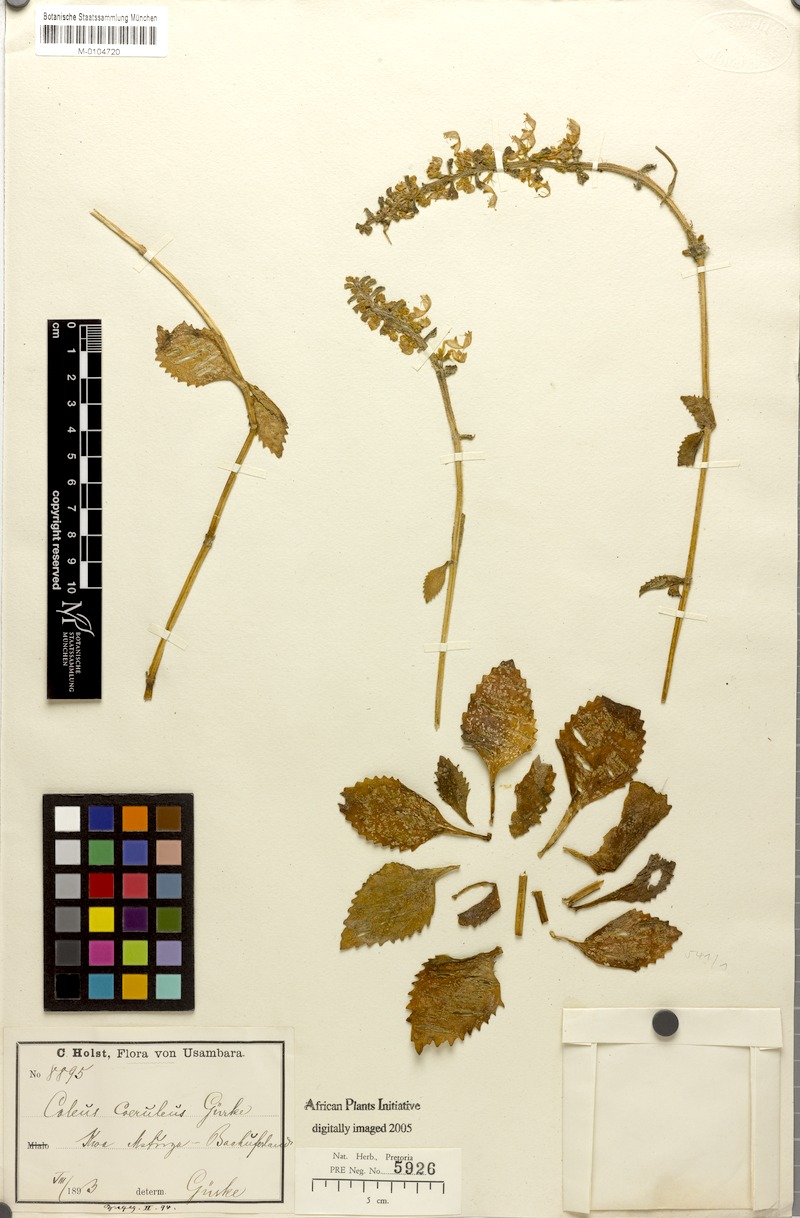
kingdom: Plantae
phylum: Tracheophyta
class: Magnoliopsida
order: Lamiales
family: Lamiaceae
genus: Coleus
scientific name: Coleus coeruleus
